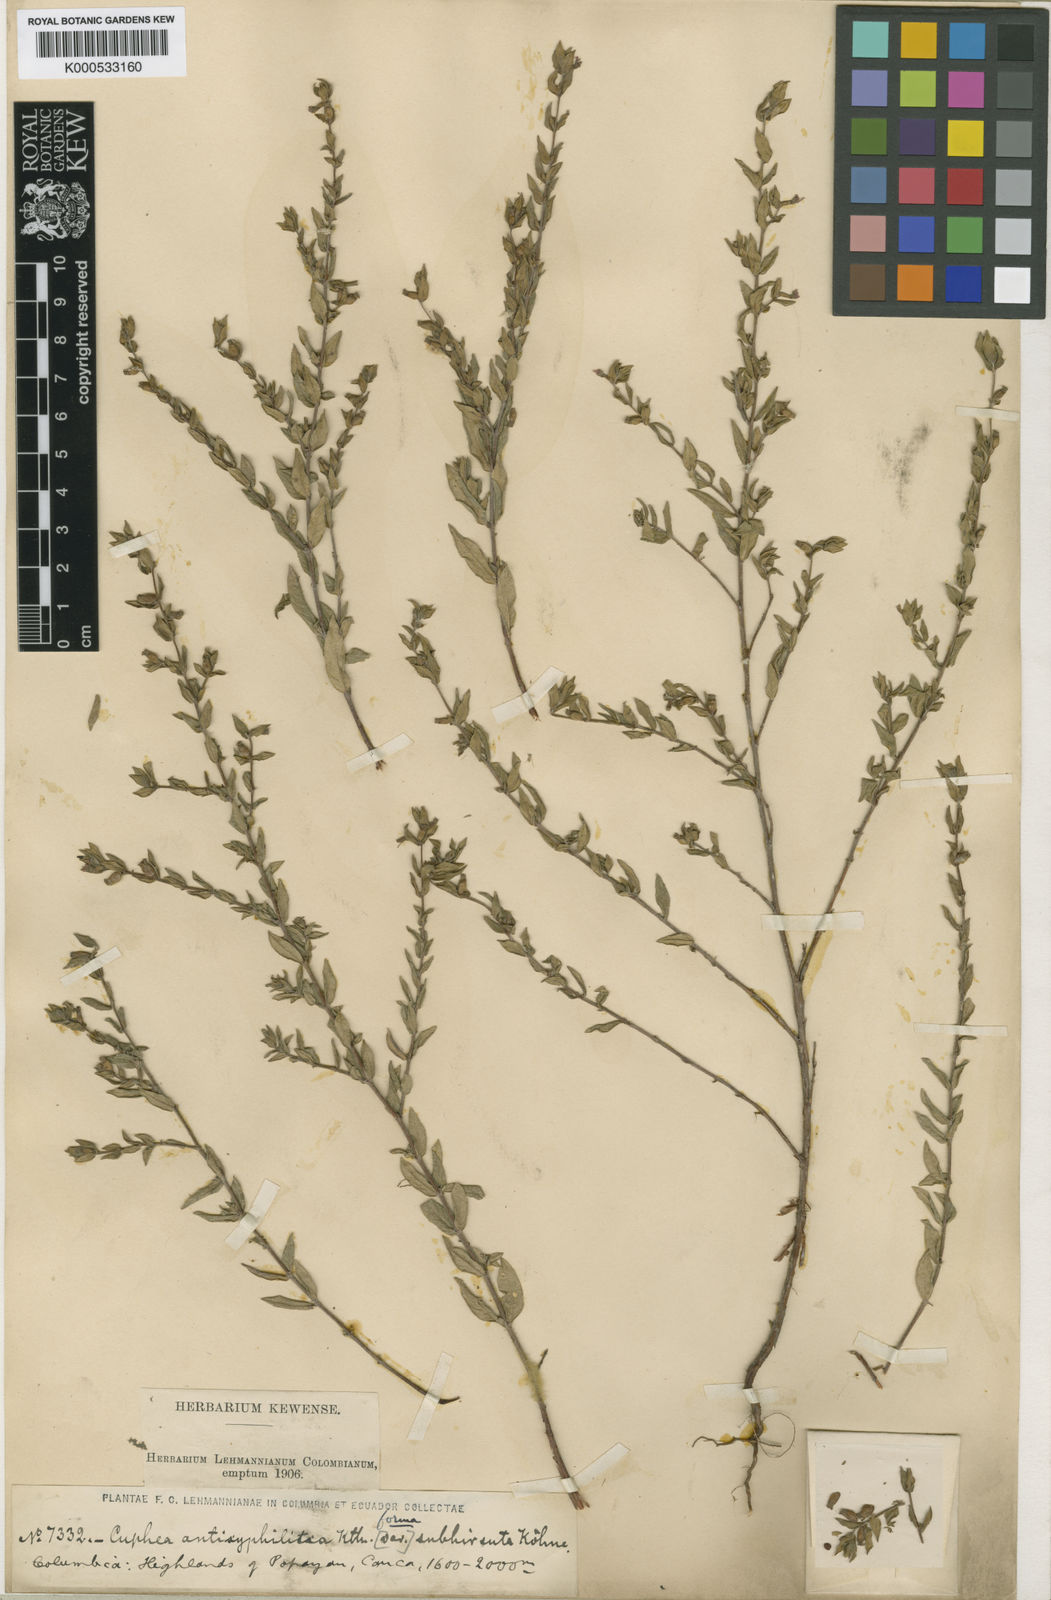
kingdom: Plantae
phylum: Tracheophyta
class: Magnoliopsida
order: Myrtales
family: Lythraceae
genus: Cuphea
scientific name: Cuphea antisyphilitica
